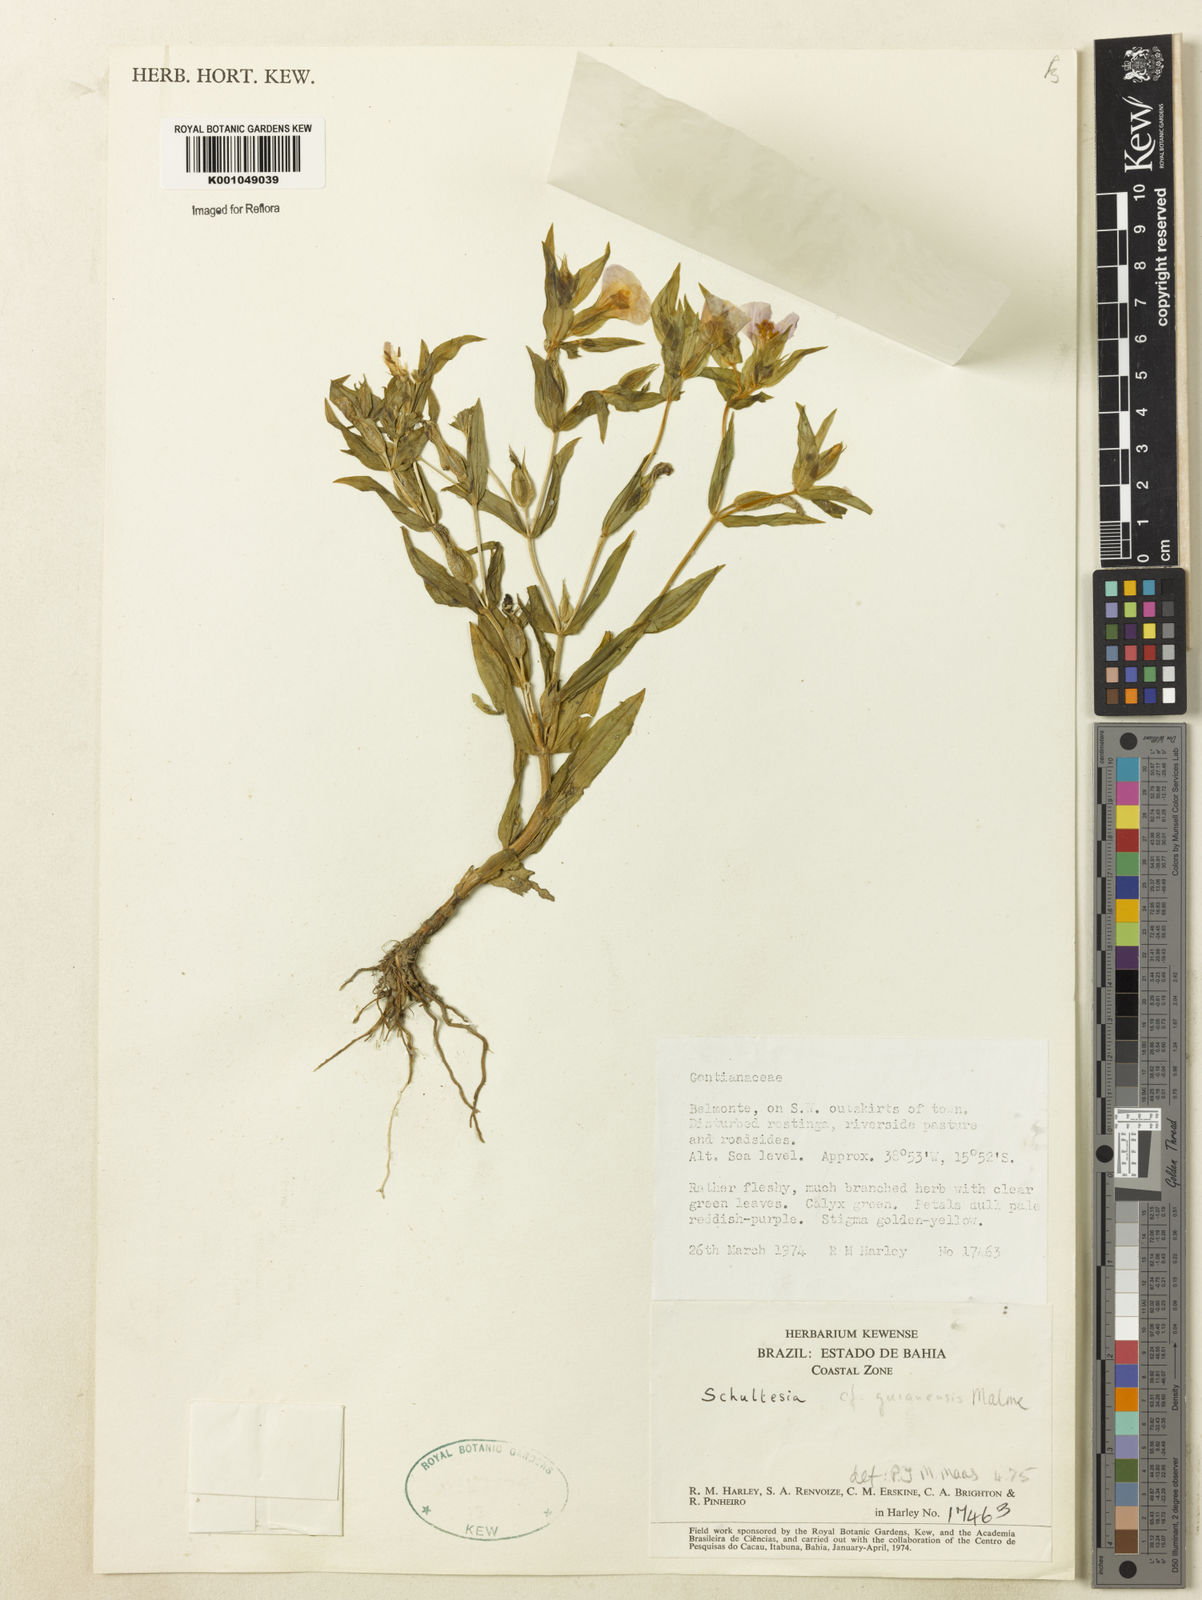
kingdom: Plantae
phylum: Tracheophyta
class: Magnoliopsida
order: Gentianales
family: Gentianaceae
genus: Schultesia
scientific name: Schultesia guianensis
